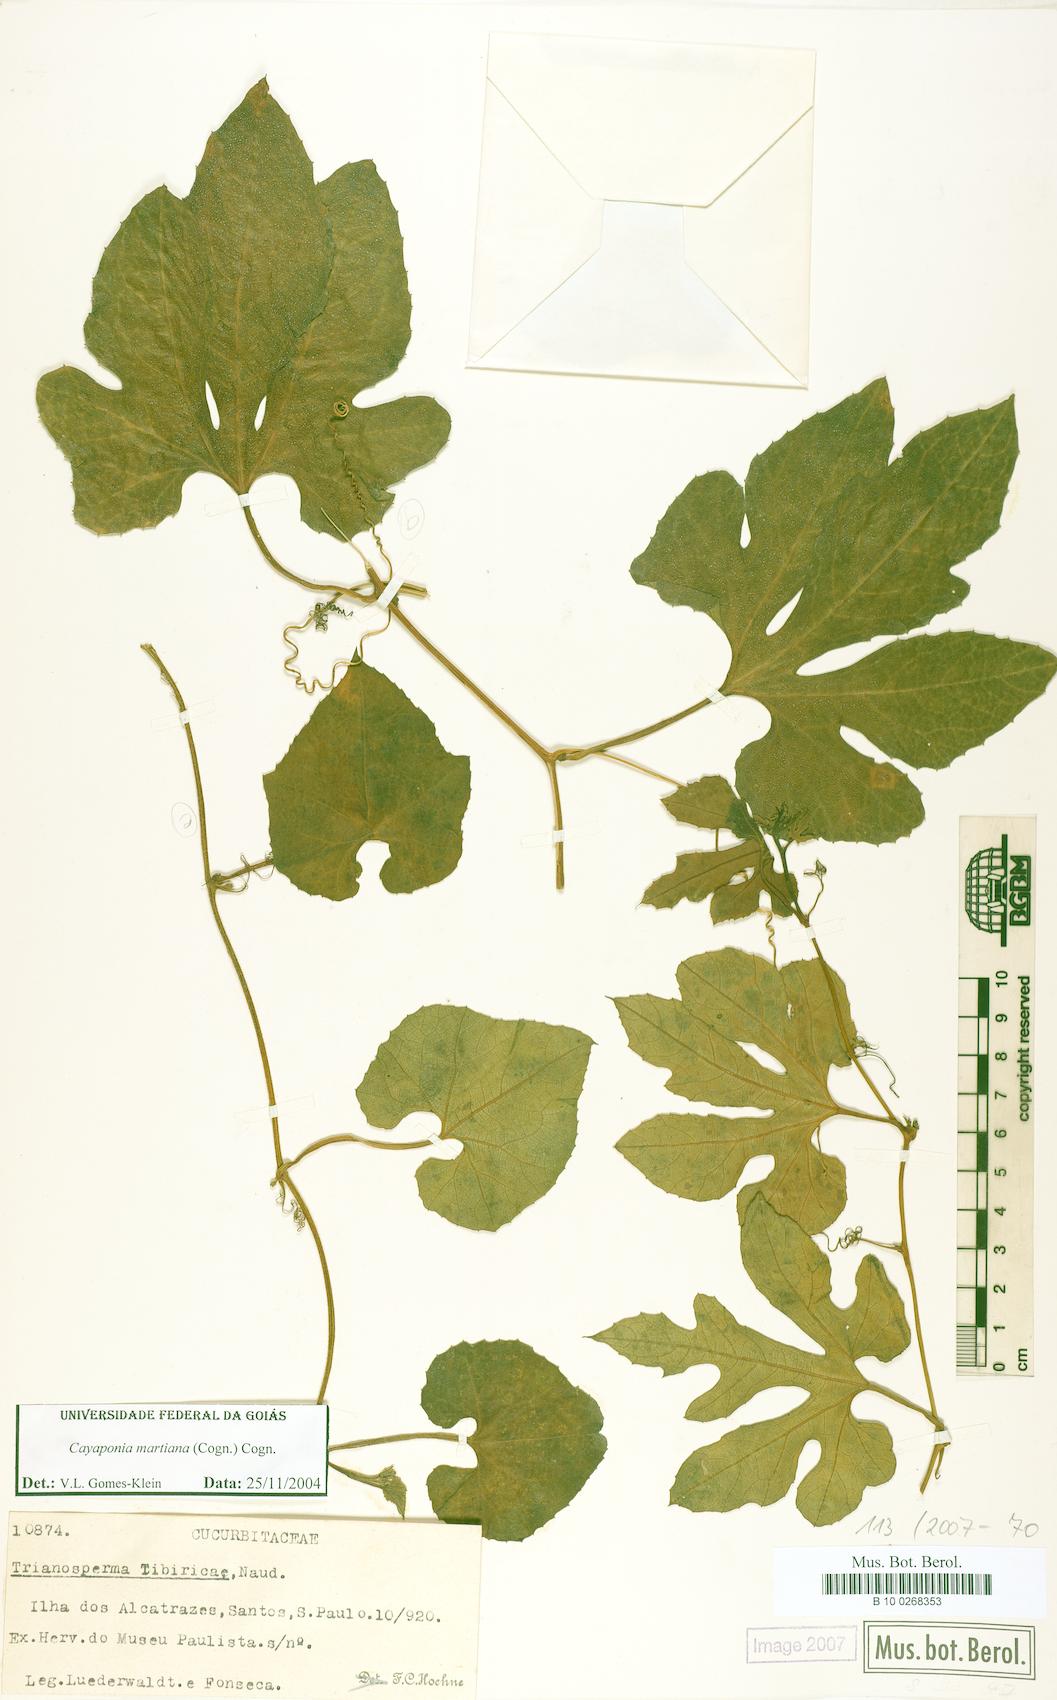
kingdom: Plantae
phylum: Tracheophyta
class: Magnoliopsida
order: Cucurbitales
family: Cucurbitaceae
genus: Cayaponia
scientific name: Cayaponia martiana
